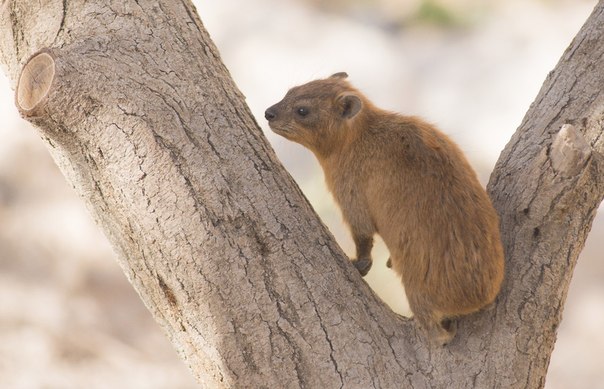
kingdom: Animalia
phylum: Chordata
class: Mammalia
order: Hyracoidea
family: Procaviidae
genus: Procavia
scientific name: Procavia capensis
